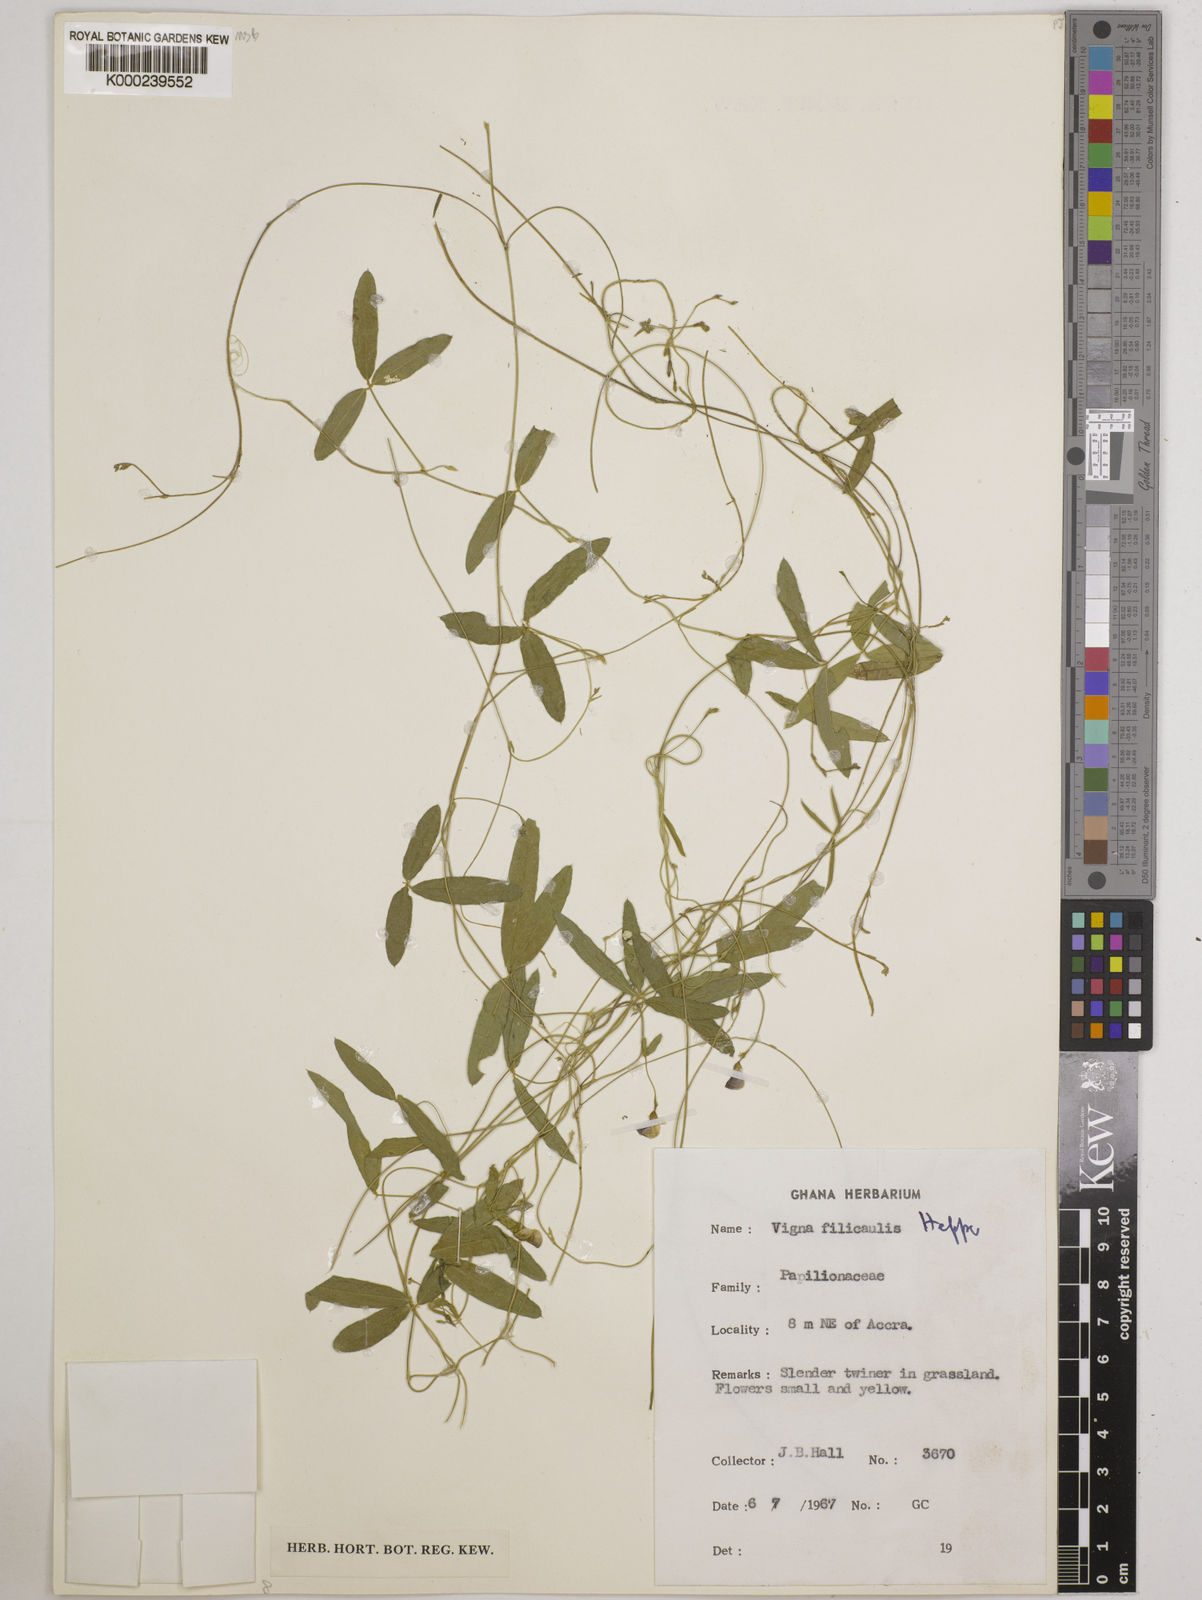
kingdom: Plantae
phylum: Tracheophyta
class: Magnoliopsida
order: Fabales
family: Fabaceae
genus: Vigna
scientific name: Vigna filicaulis
